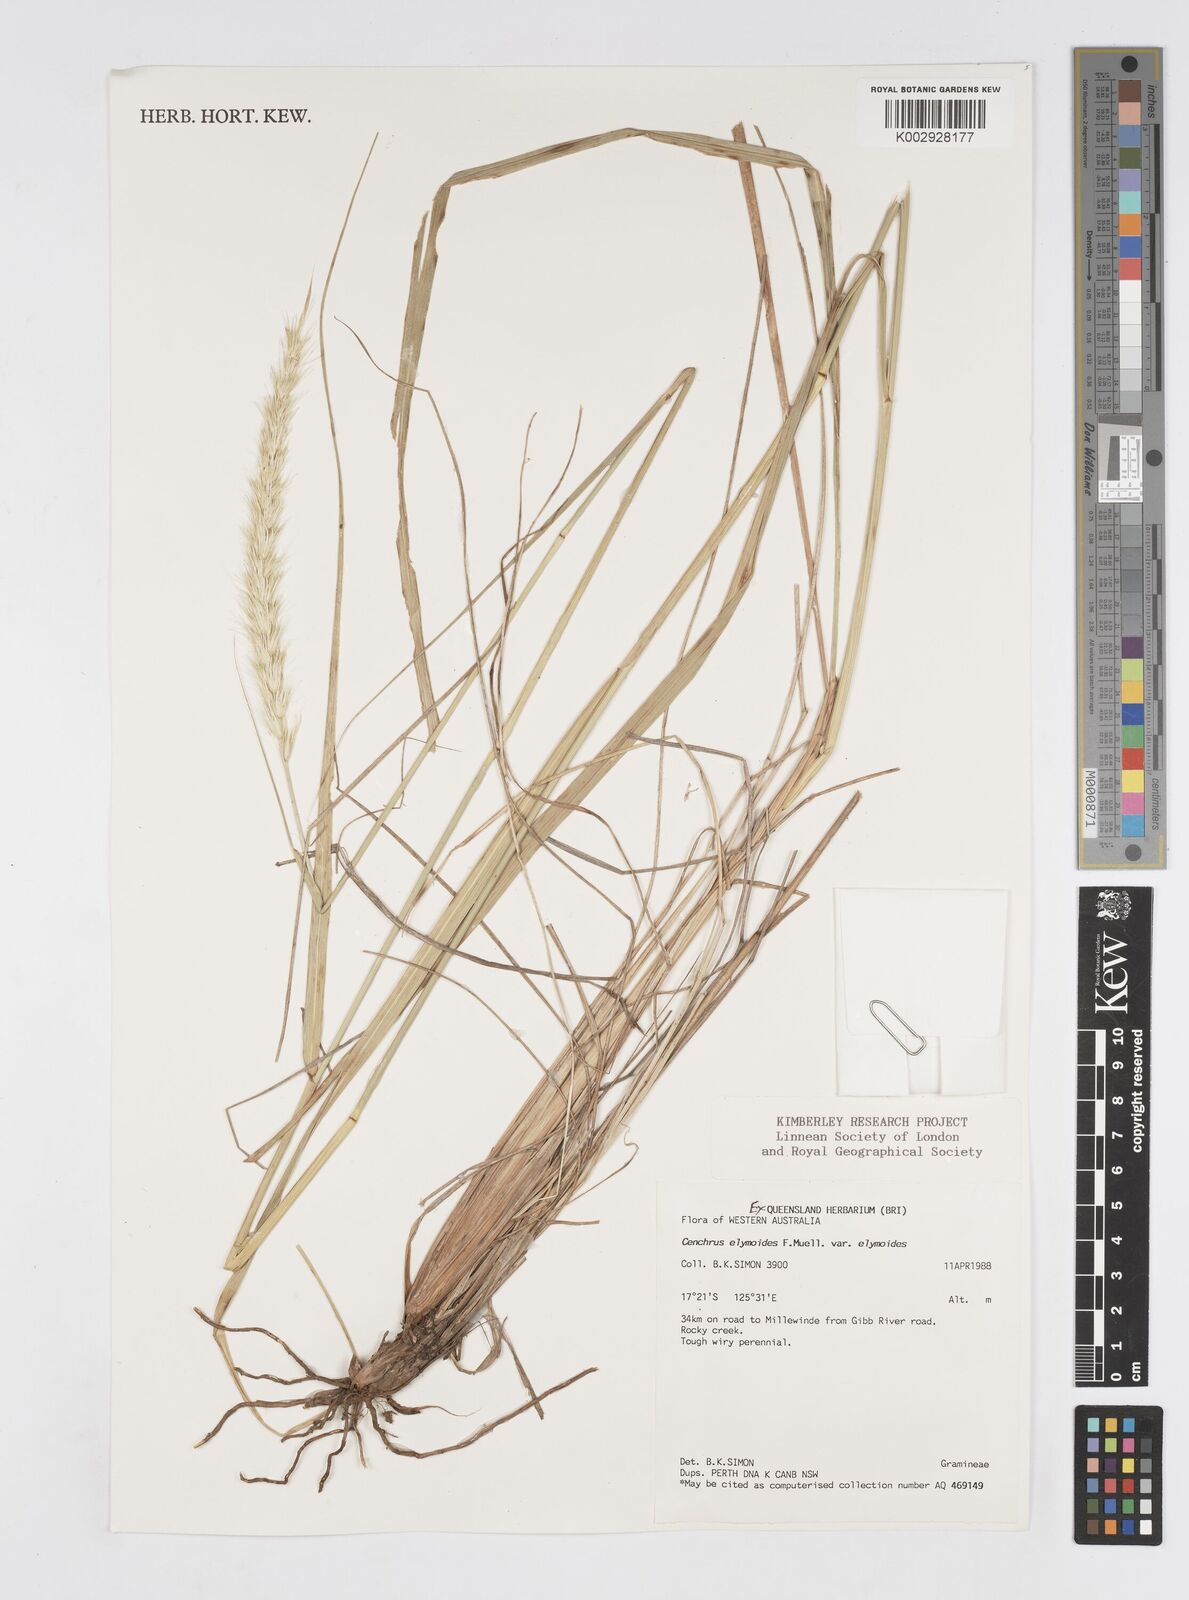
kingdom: Plantae
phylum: Tracheophyta
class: Liliopsida
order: Poales
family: Poaceae
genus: Cenchrus
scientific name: Cenchrus elymoides
